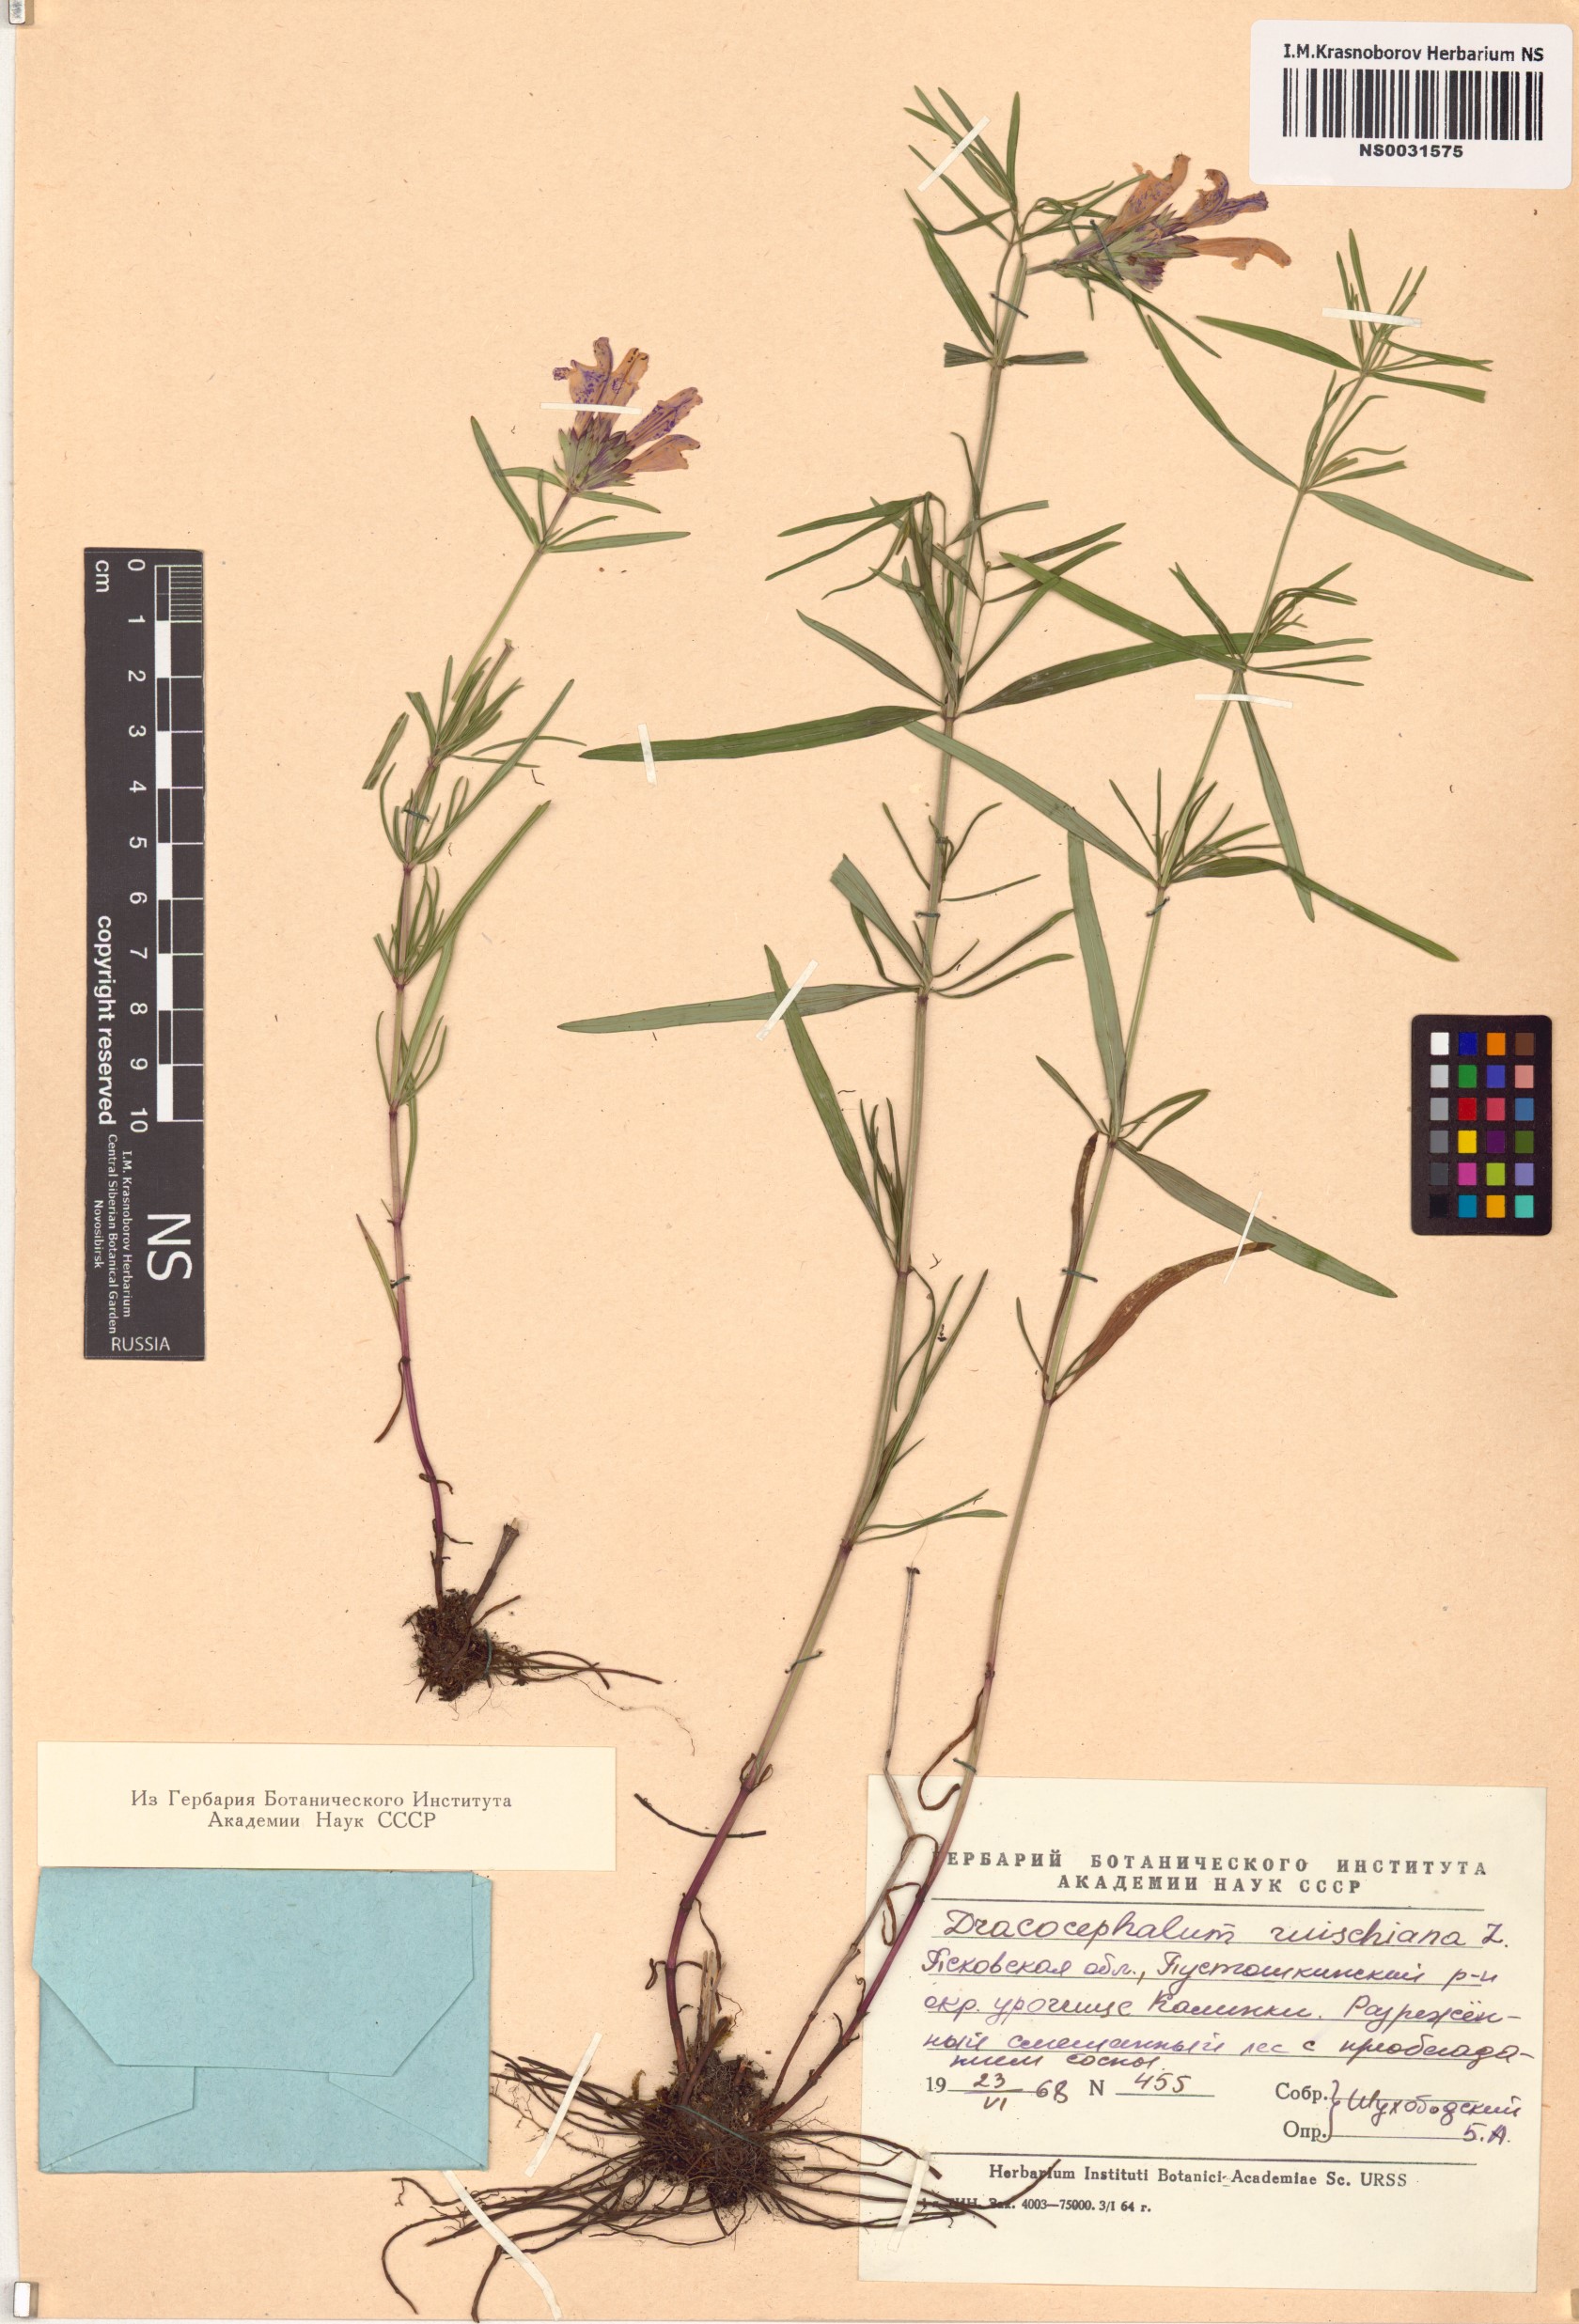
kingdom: Plantae
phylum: Tracheophyta
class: Magnoliopsida
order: Lamiales
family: Lamiaceae
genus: Dracocephalum
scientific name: Dracocephalum ruyschiana
